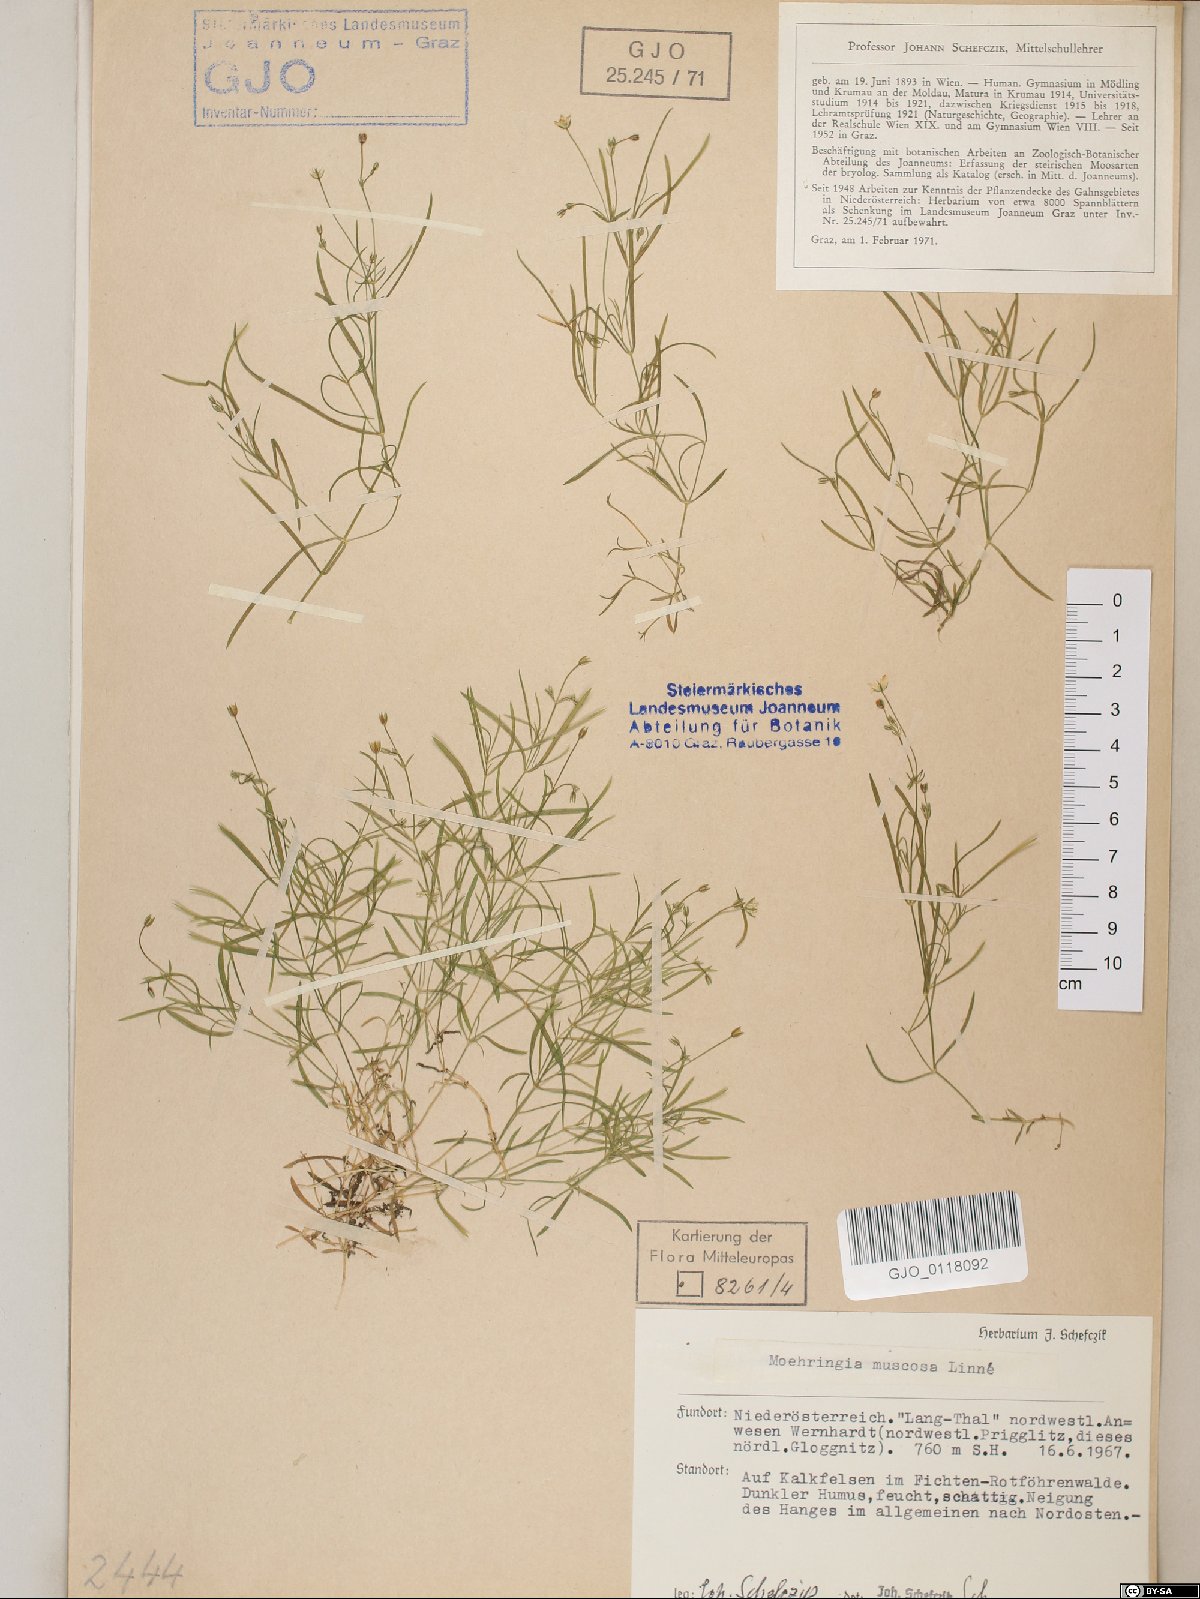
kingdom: Plantae
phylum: Tracheophyta
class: Magnoliopsida
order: Caryophyllales
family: Caryophyllaceae
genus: Moehringia
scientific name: Moehringia muscosa
